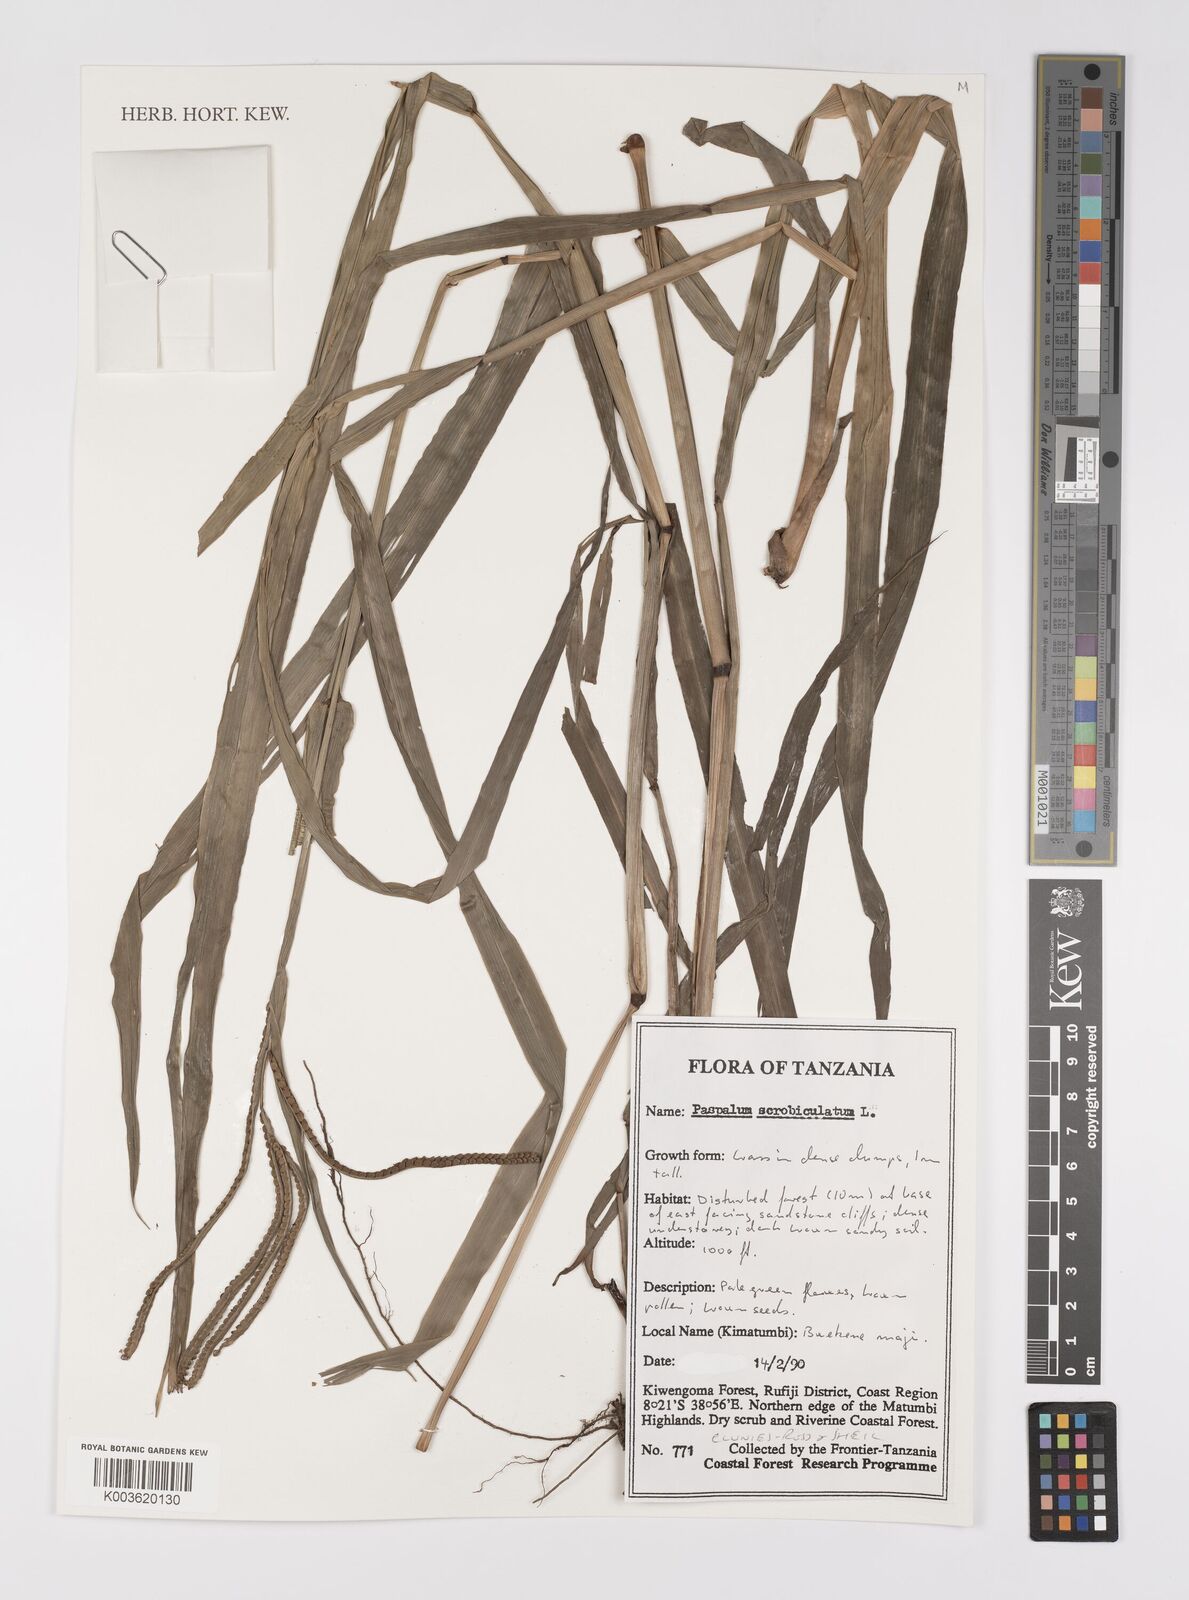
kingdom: Plantae
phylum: Tracheophyta
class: Liliopsida
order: Poales
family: Poaceae
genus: Paspalum
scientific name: Paspalum scrobiculatum
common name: Kodo millet
